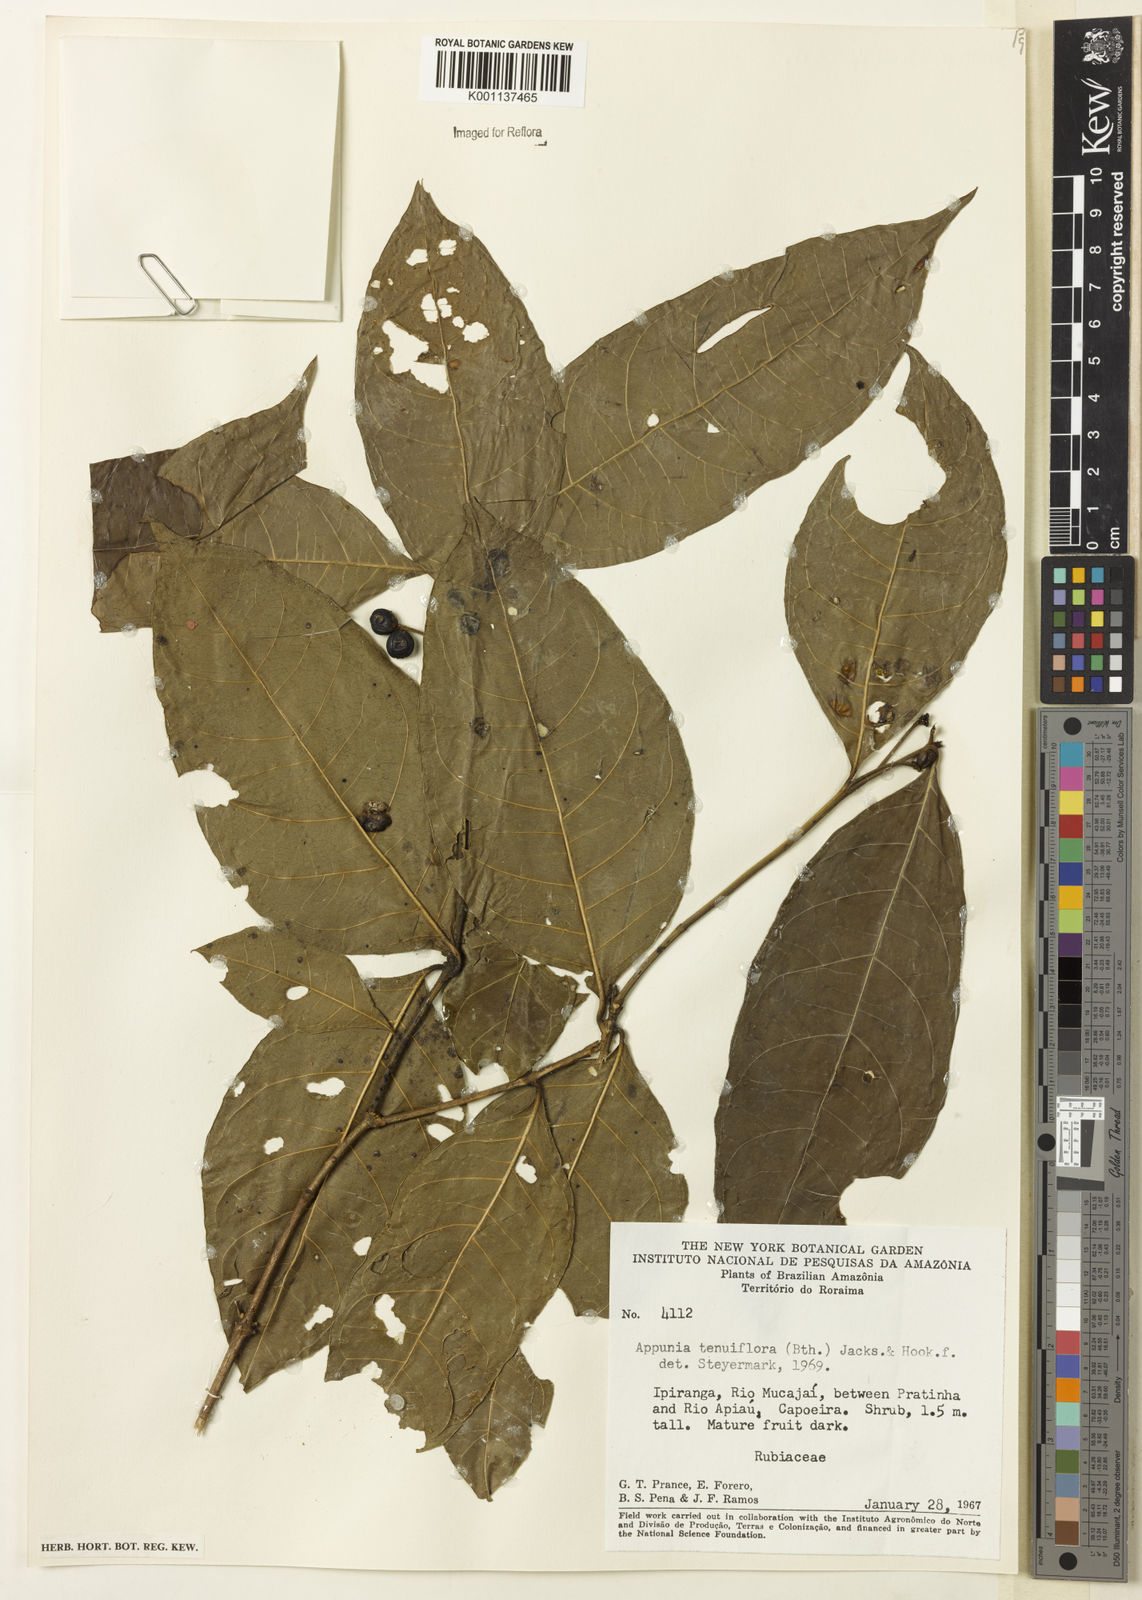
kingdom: Plantae
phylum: Tracheophyta
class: Magnoliopsida
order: Gentianales
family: Rubiaceae
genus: Appunia
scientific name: Appunia tenuiflora
